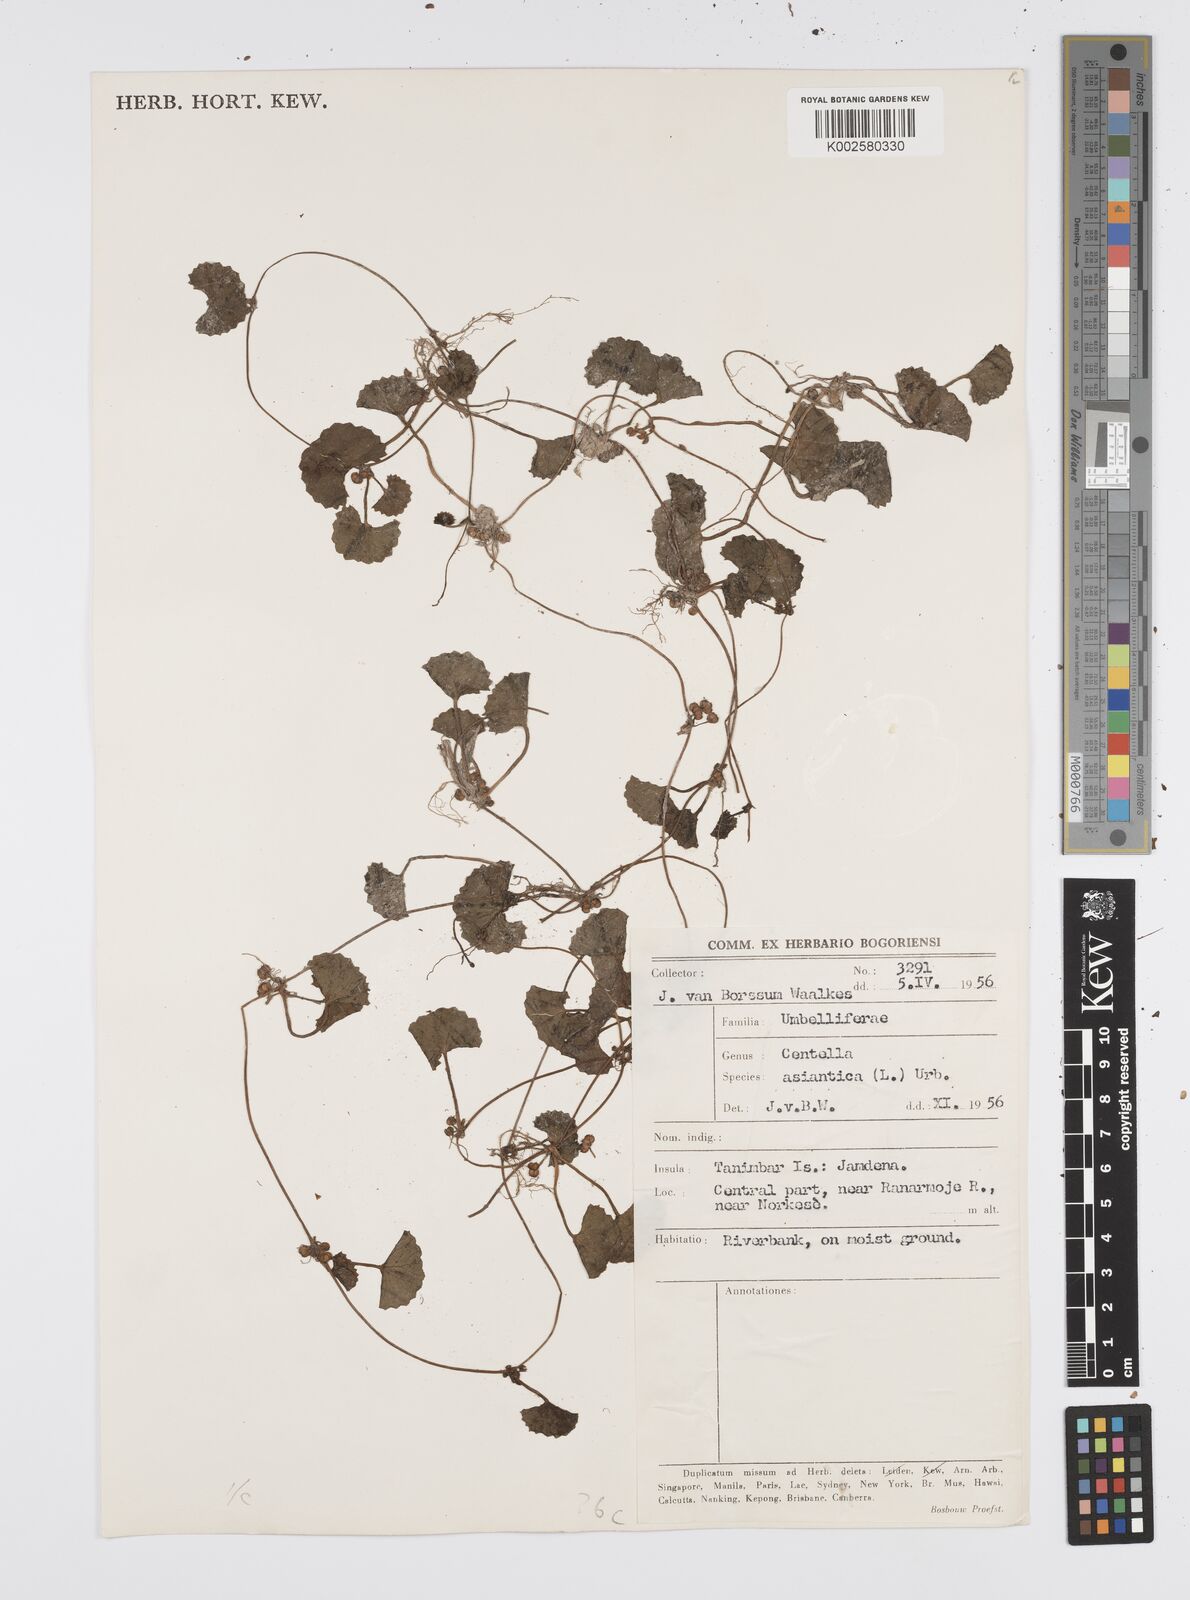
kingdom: Plantae
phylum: Tracheophyta
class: Magnoliopsida
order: Apiales
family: Apiaceae
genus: Centella
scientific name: Centella asiatica
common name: Spadeleaf
